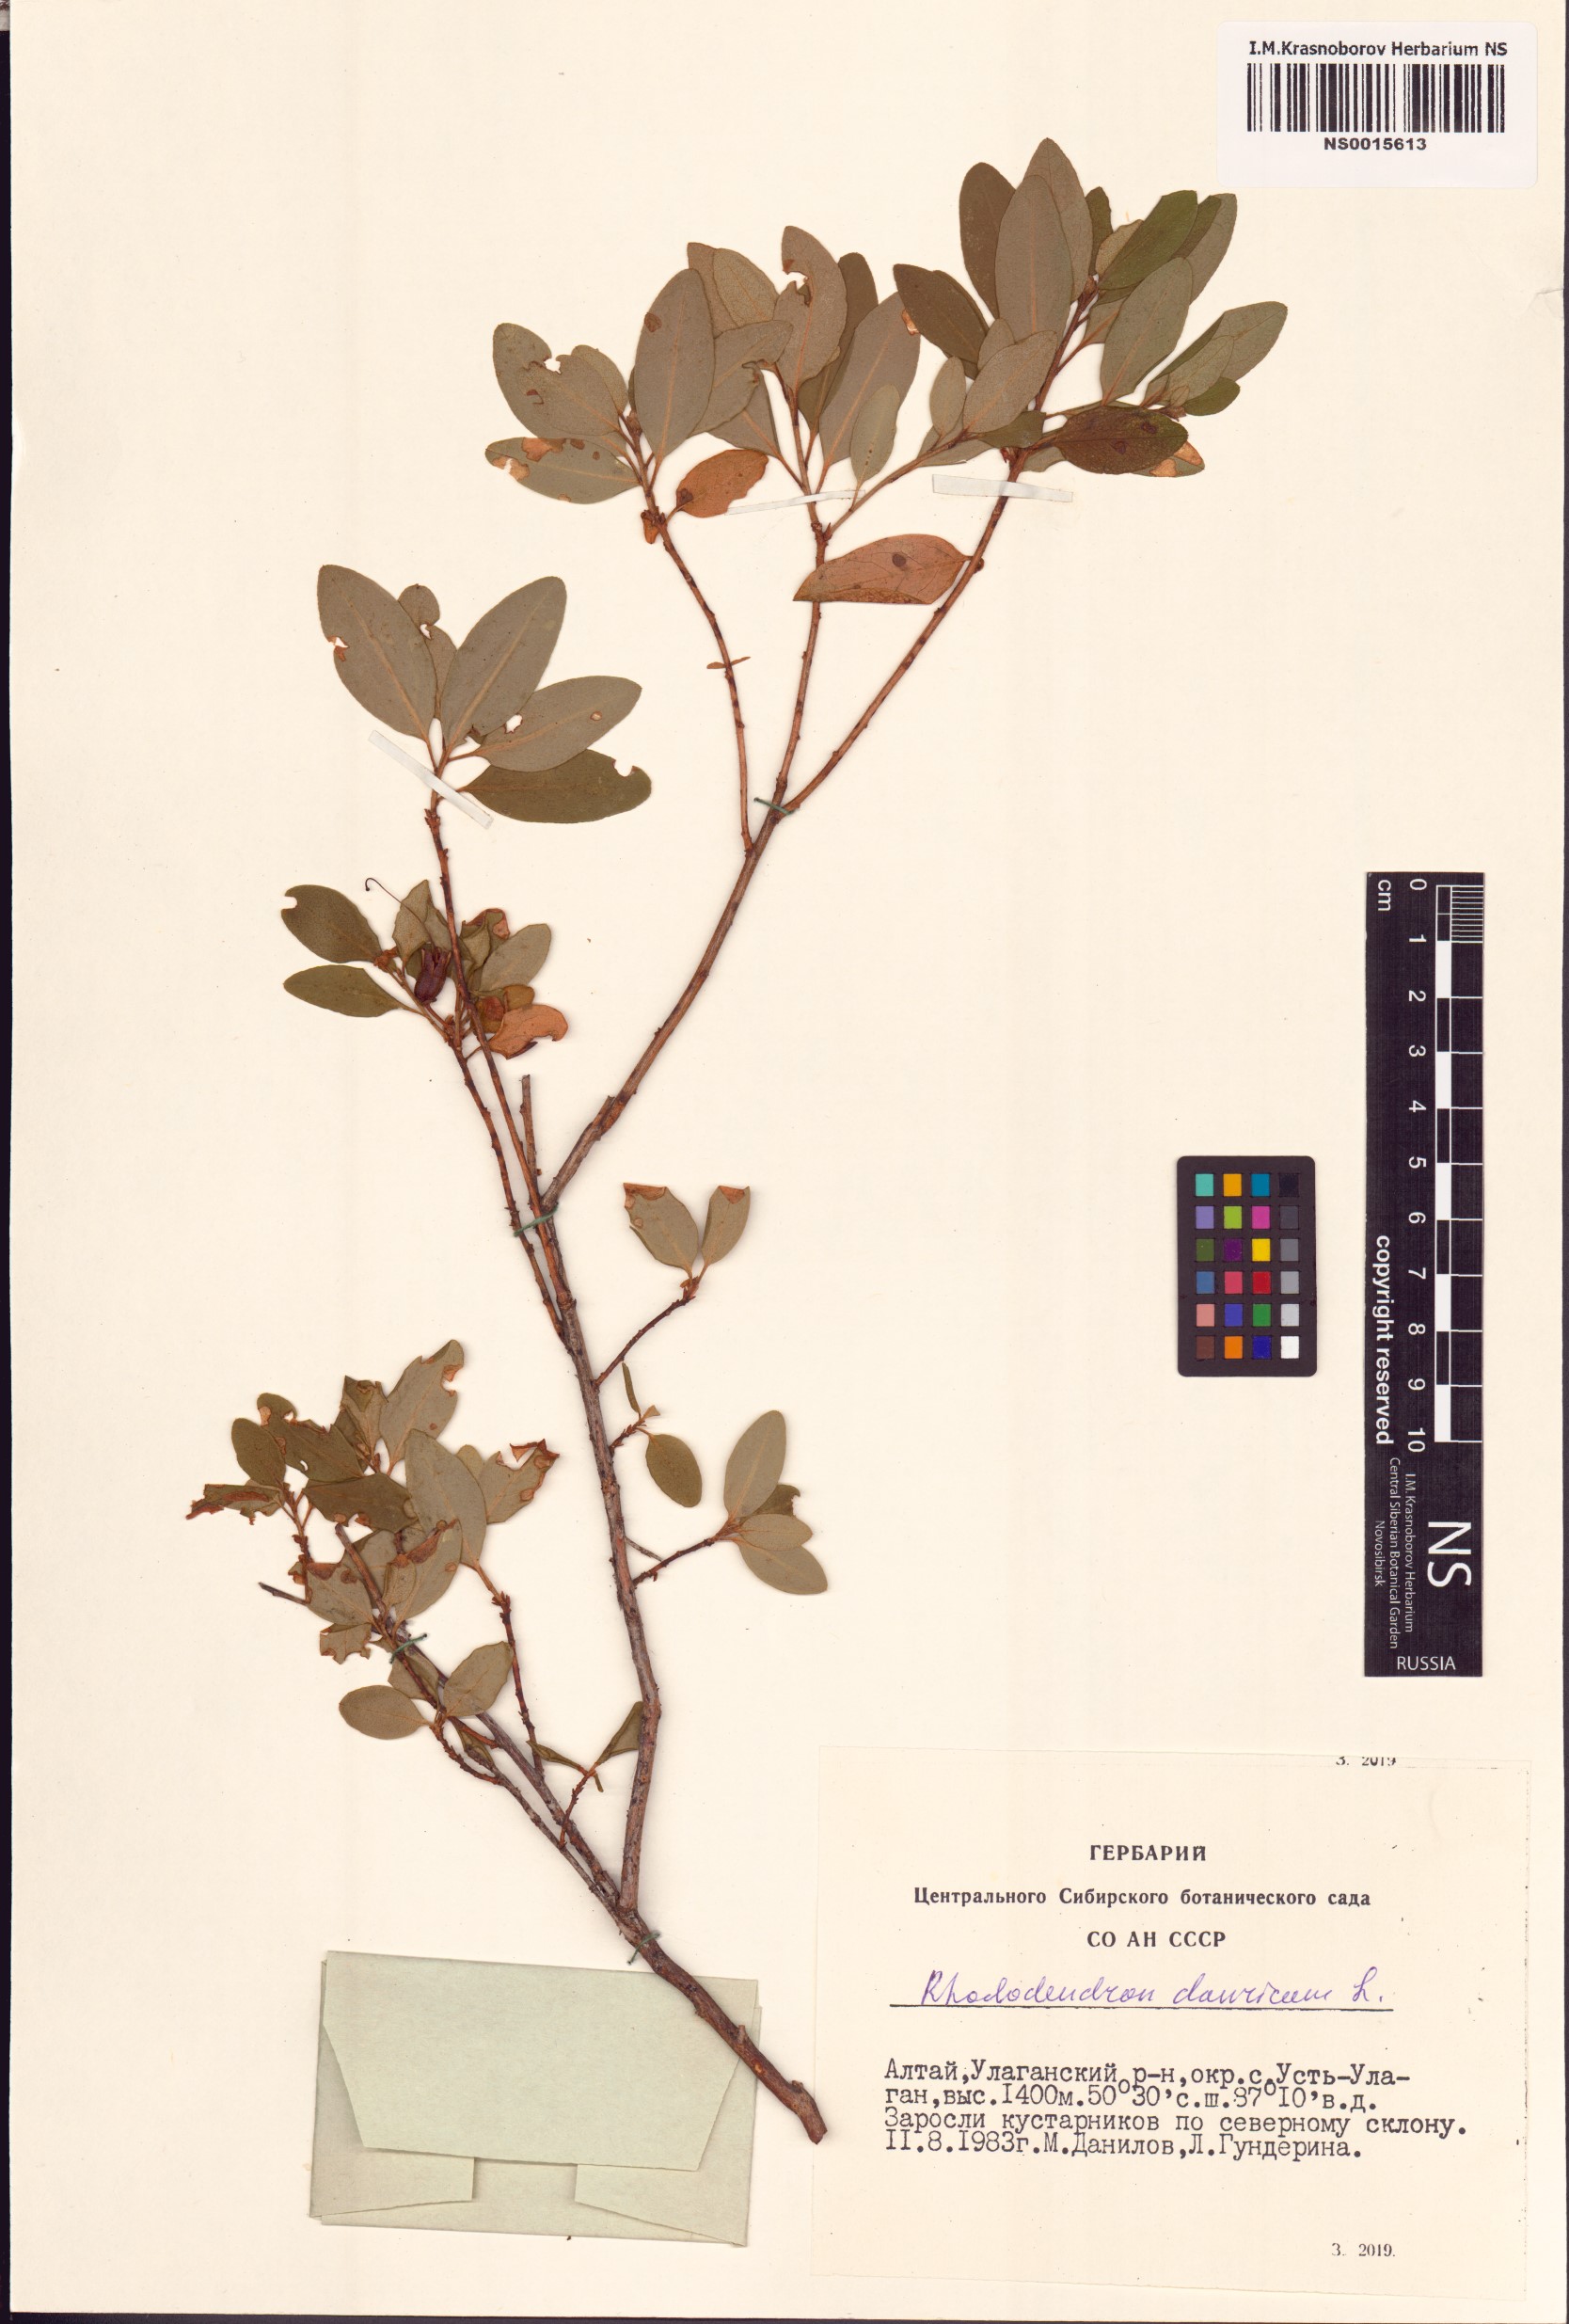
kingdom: Plantae
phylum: Tracheophyta
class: Magnoliopsida
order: Ericales
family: Ericaceae
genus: Rhododendron
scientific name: Rhododendron dauricum
